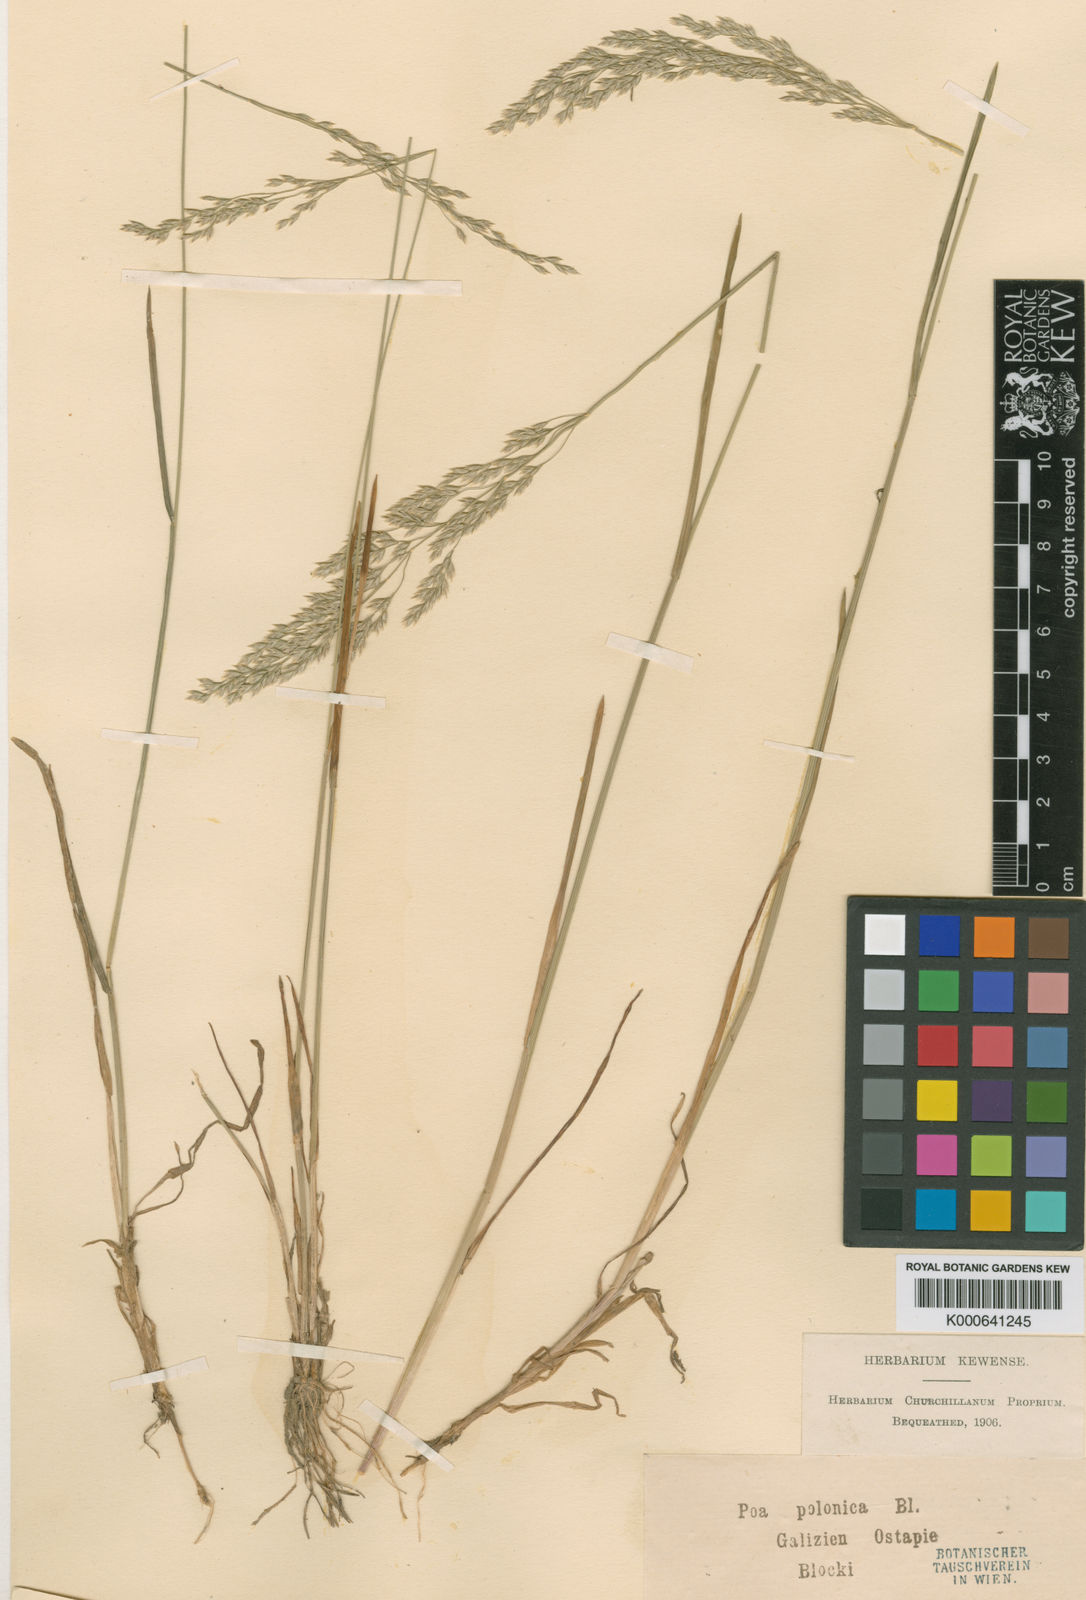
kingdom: Plantae
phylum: Tracheophyta
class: Liliopsida
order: Poales
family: Poaceae
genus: Poa
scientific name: Poa versicolor
